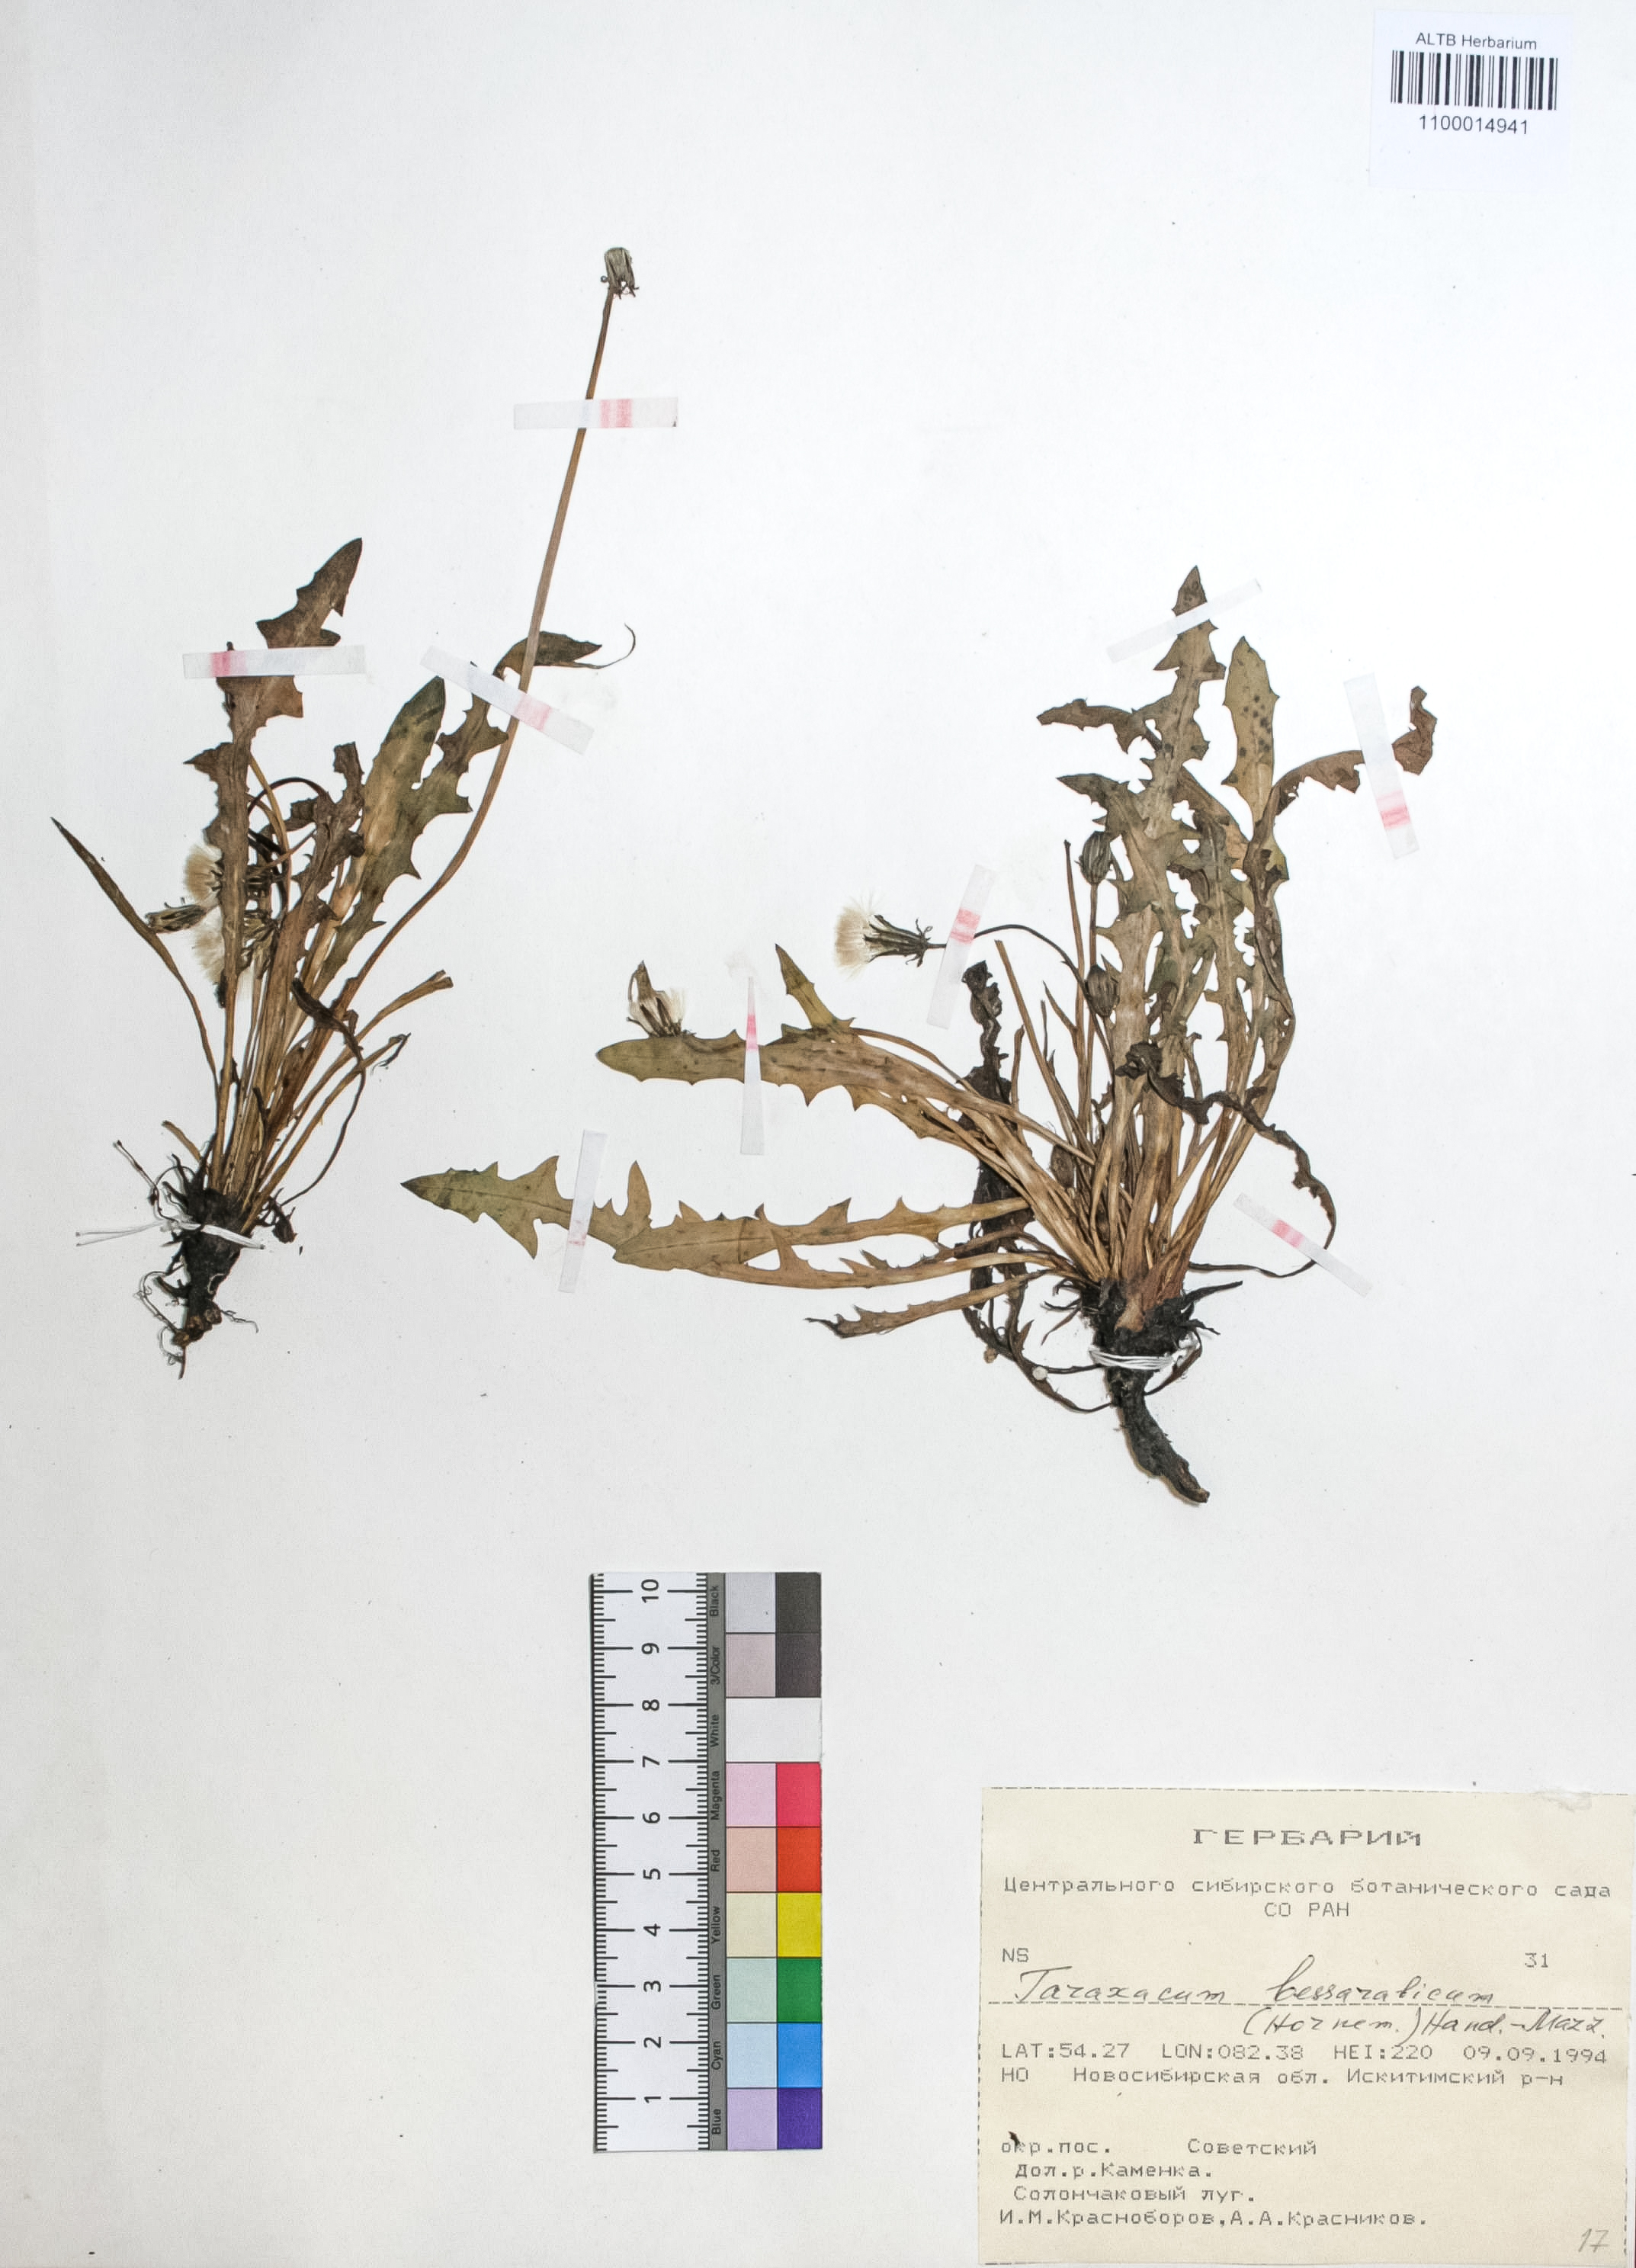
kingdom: Plantae
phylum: Tracheophyta
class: Magnoliopsida
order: Asterales
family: Asteraceae
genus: Taraxacum
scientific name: Taraxacum bessarabicum
